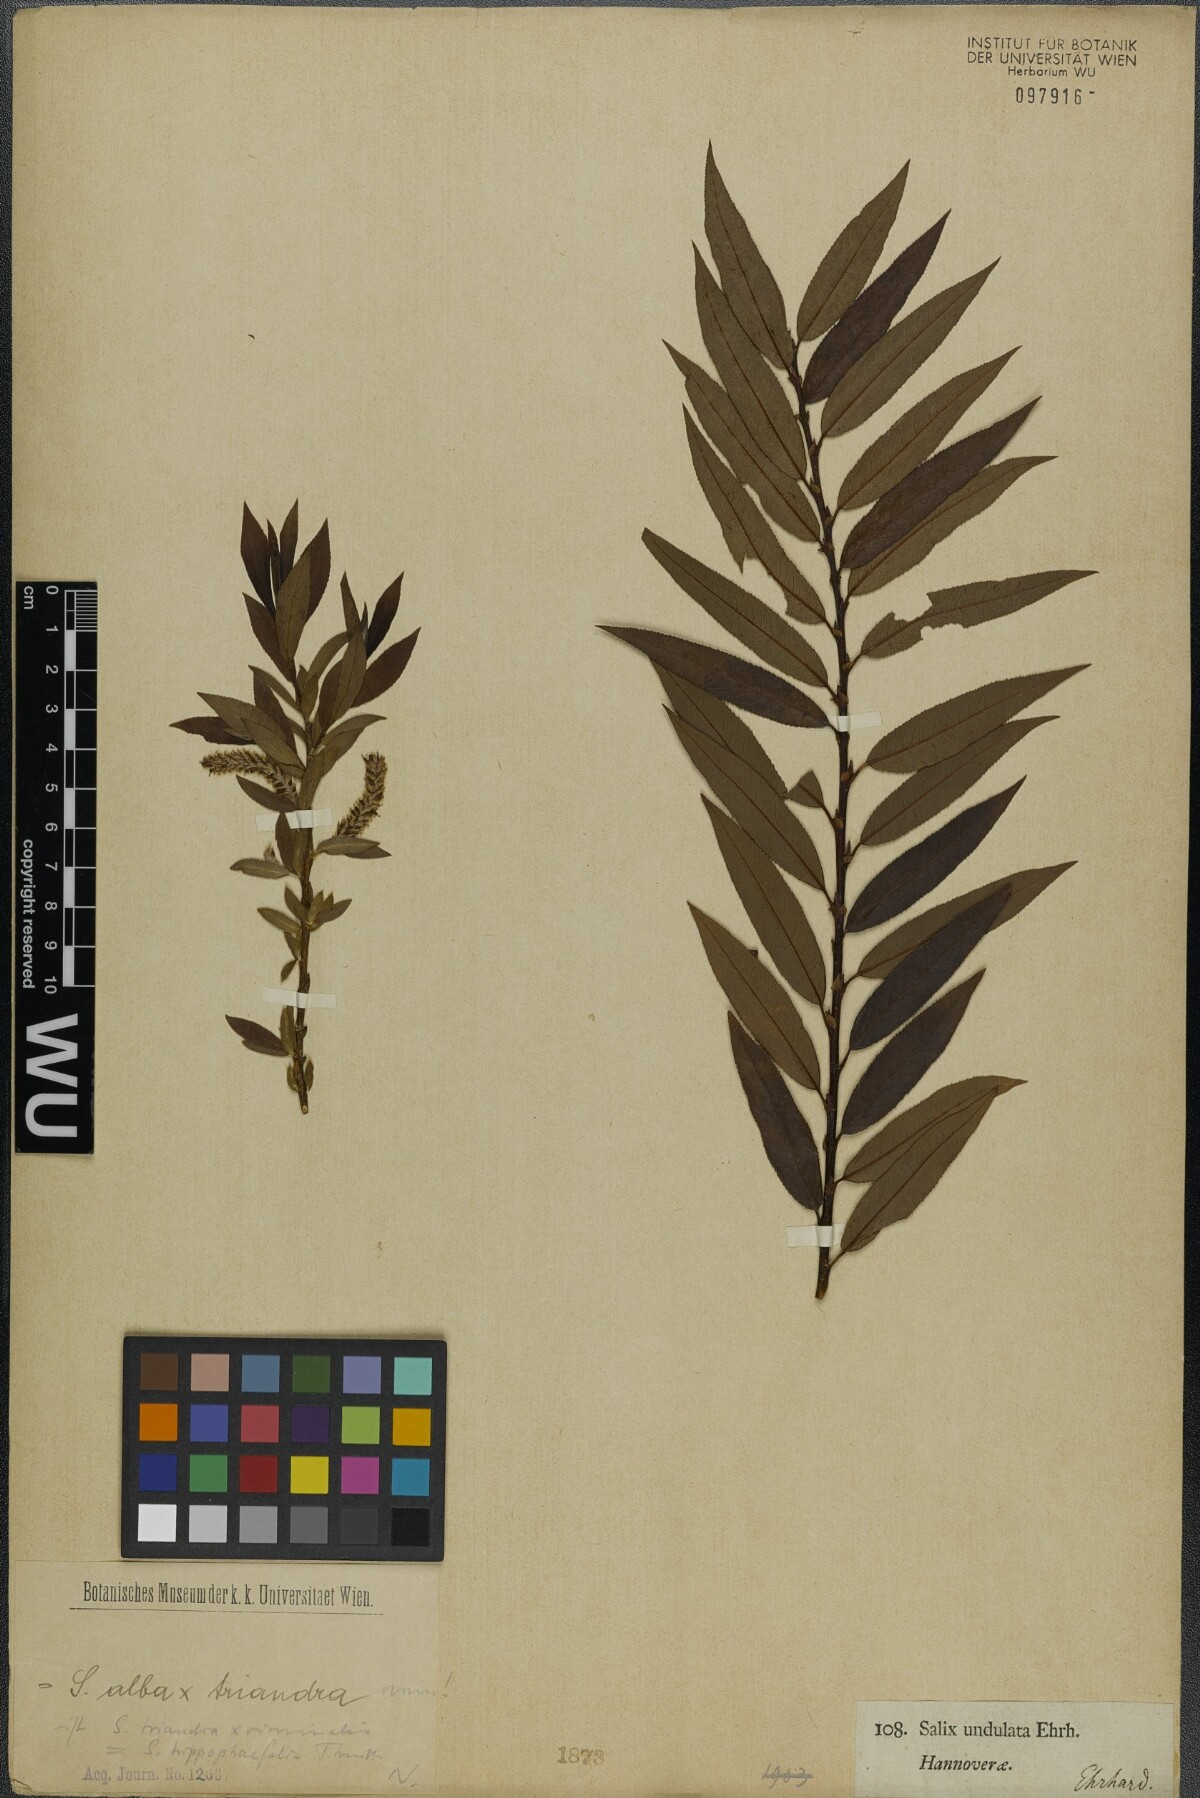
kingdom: Plantae
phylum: Tracheophyta
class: Magnoliopsida
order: Malpighiales
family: Salicaceae
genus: Salix
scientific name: Salix undulata
